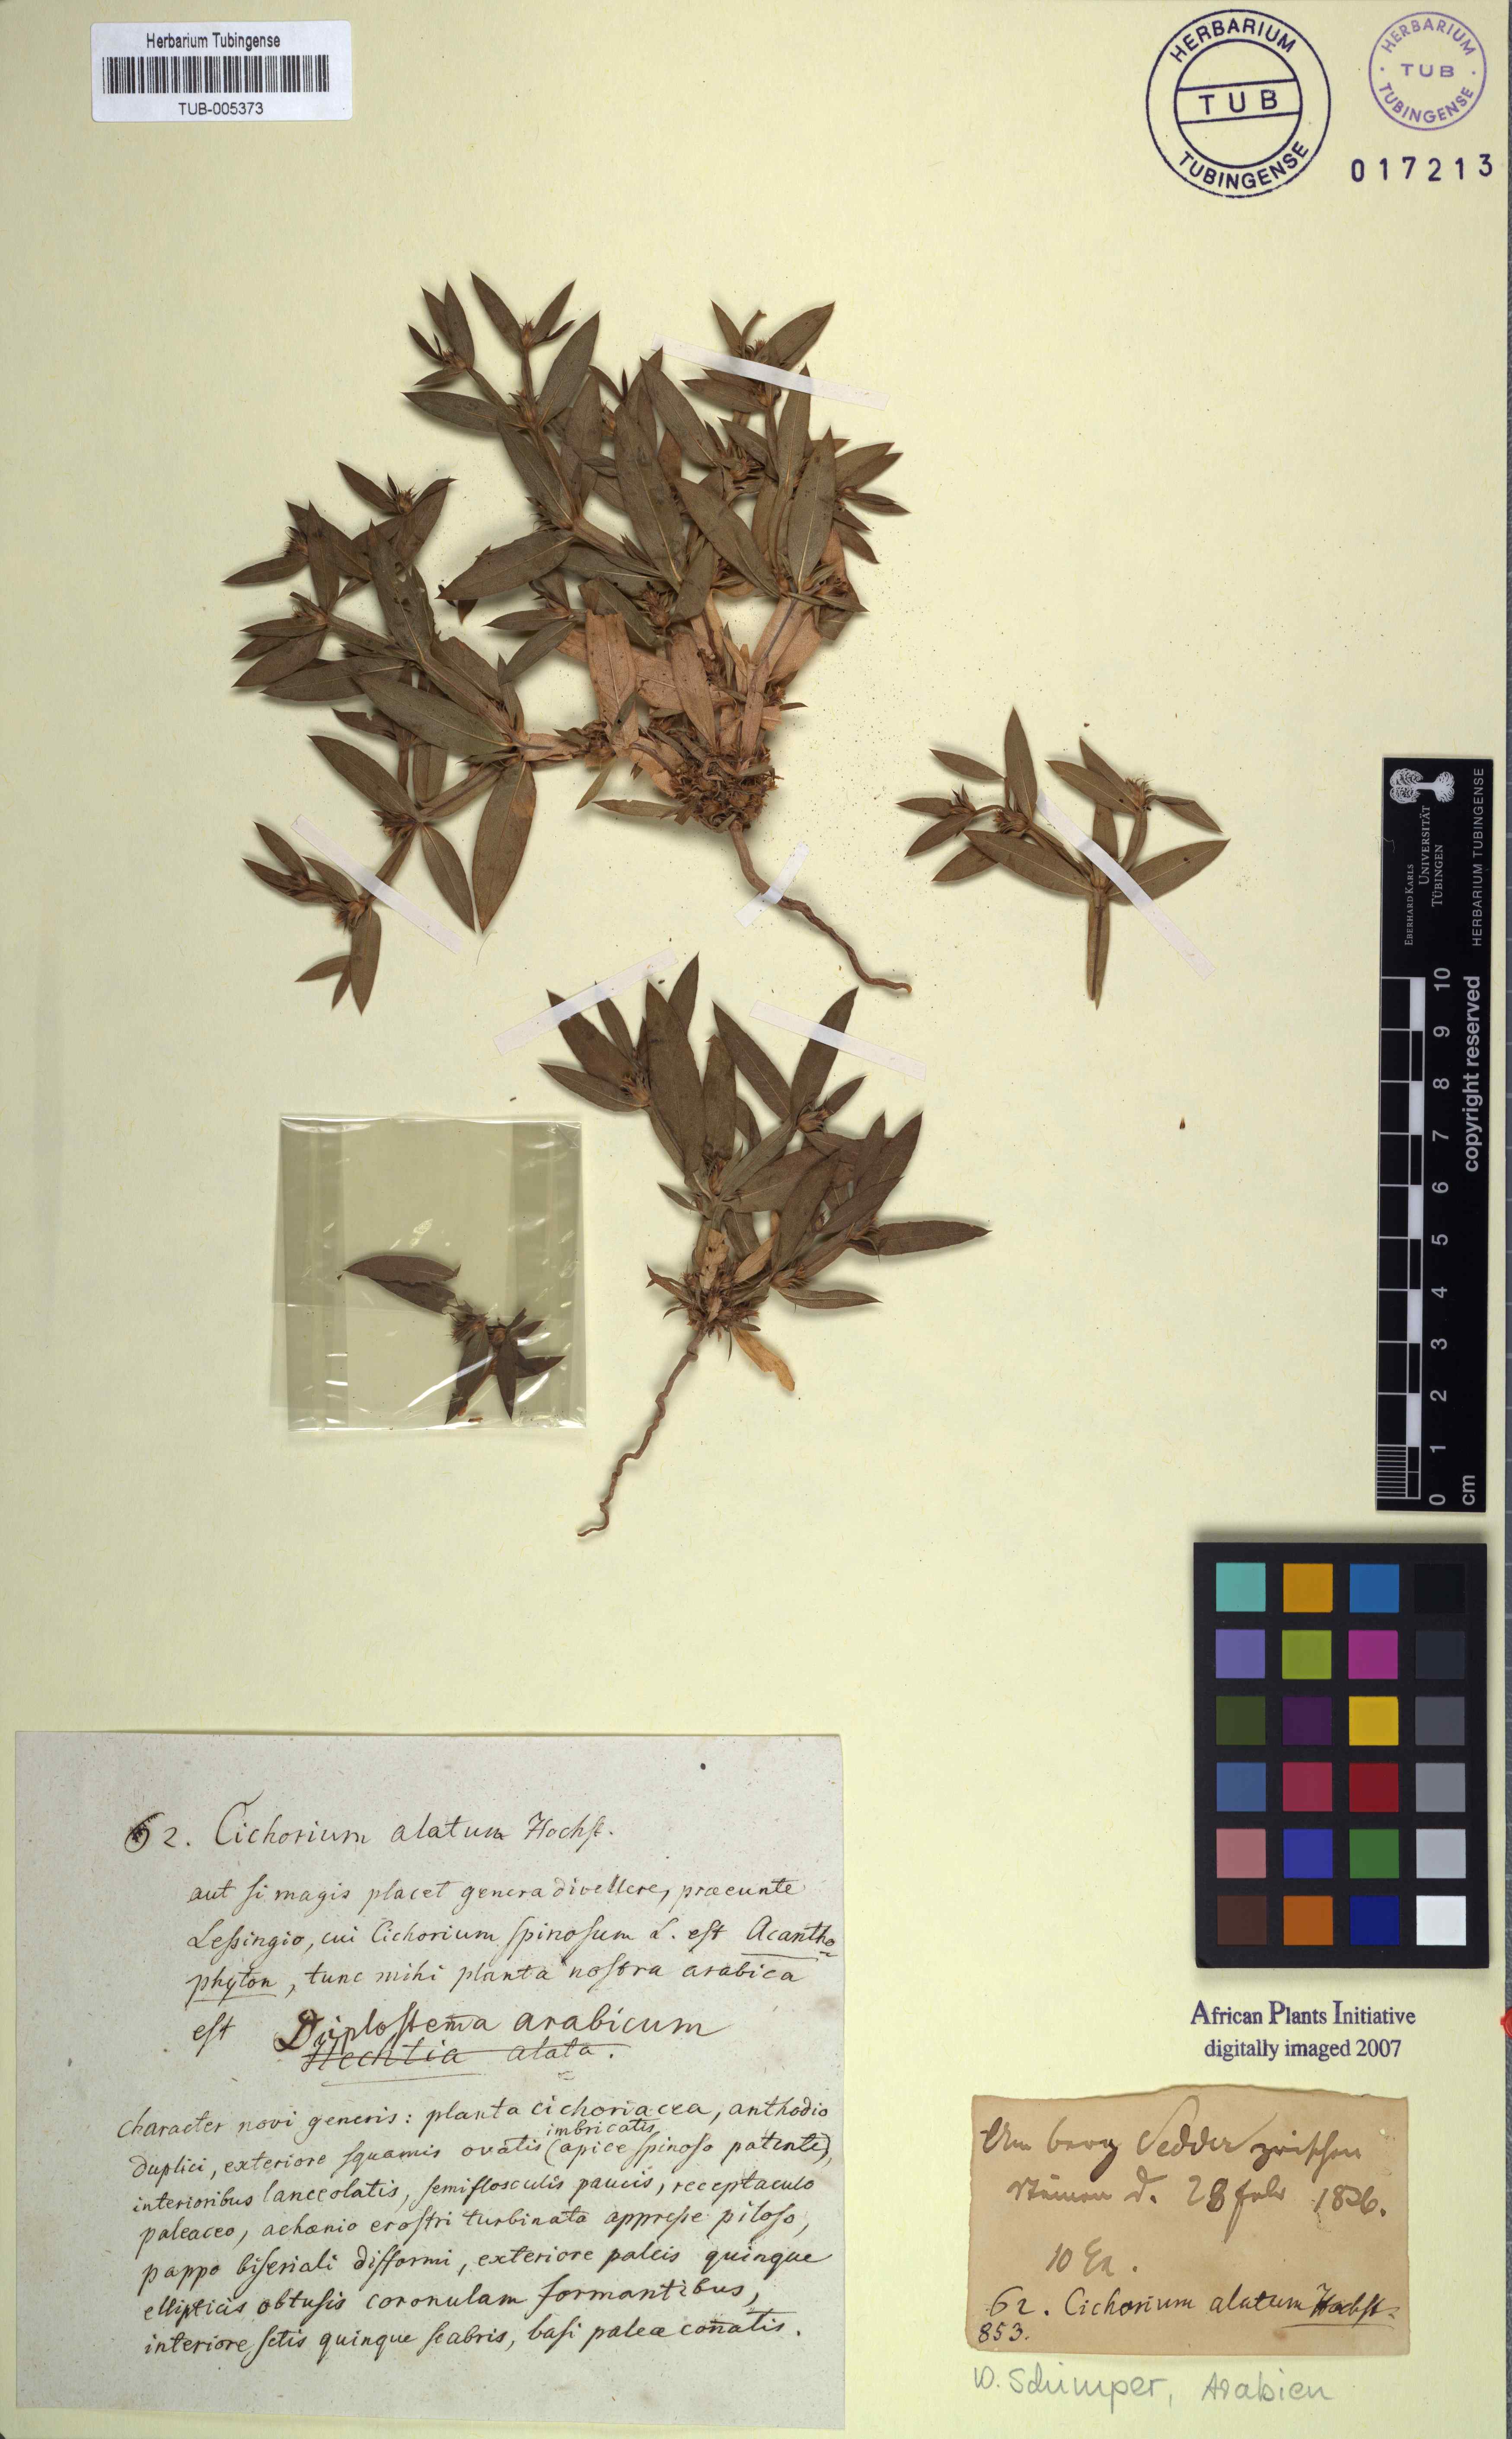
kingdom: Plantae
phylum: Tracheophyta
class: Magnoliopsida
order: Asterales
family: Asteraceae
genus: Geigeria
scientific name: Geigeria alata
